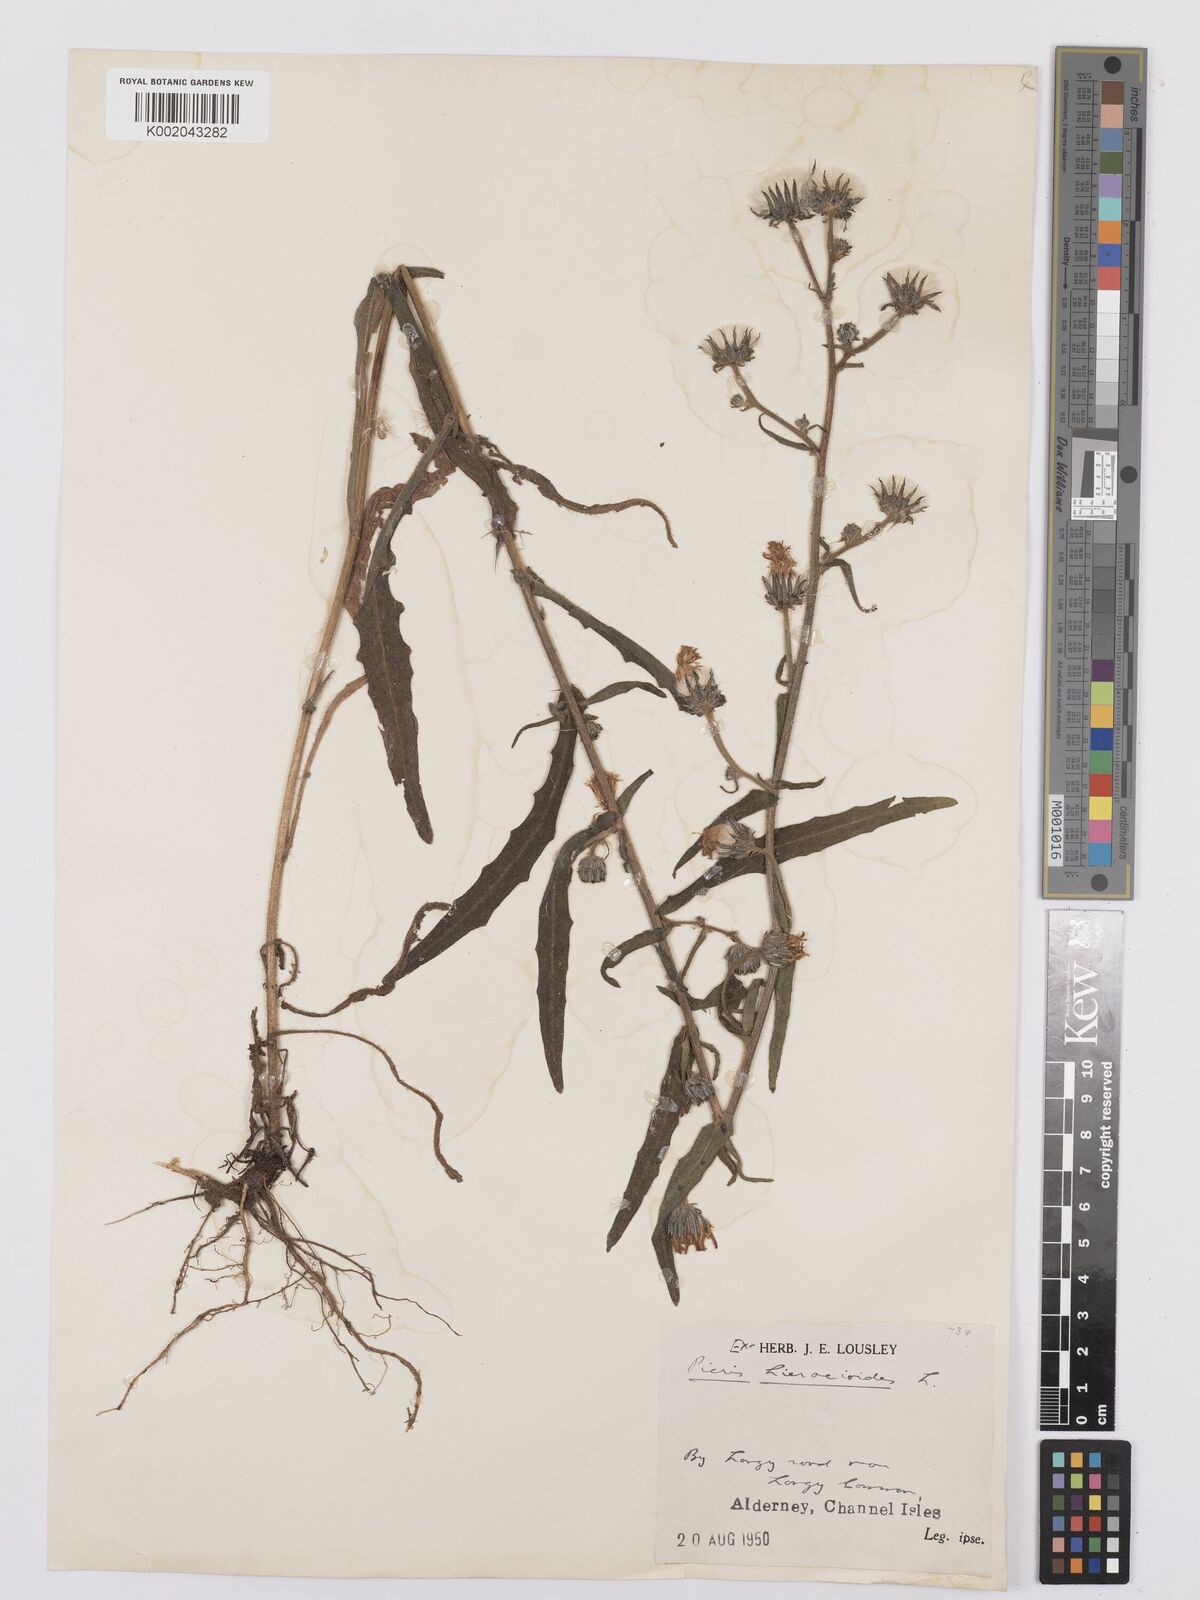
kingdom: Plantae
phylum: Tracheophyta
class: Magnoliopsida
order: Asterales
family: Asteraceae
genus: Picris
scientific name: Picris hieracioides
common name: Hawkweed oxtongue
